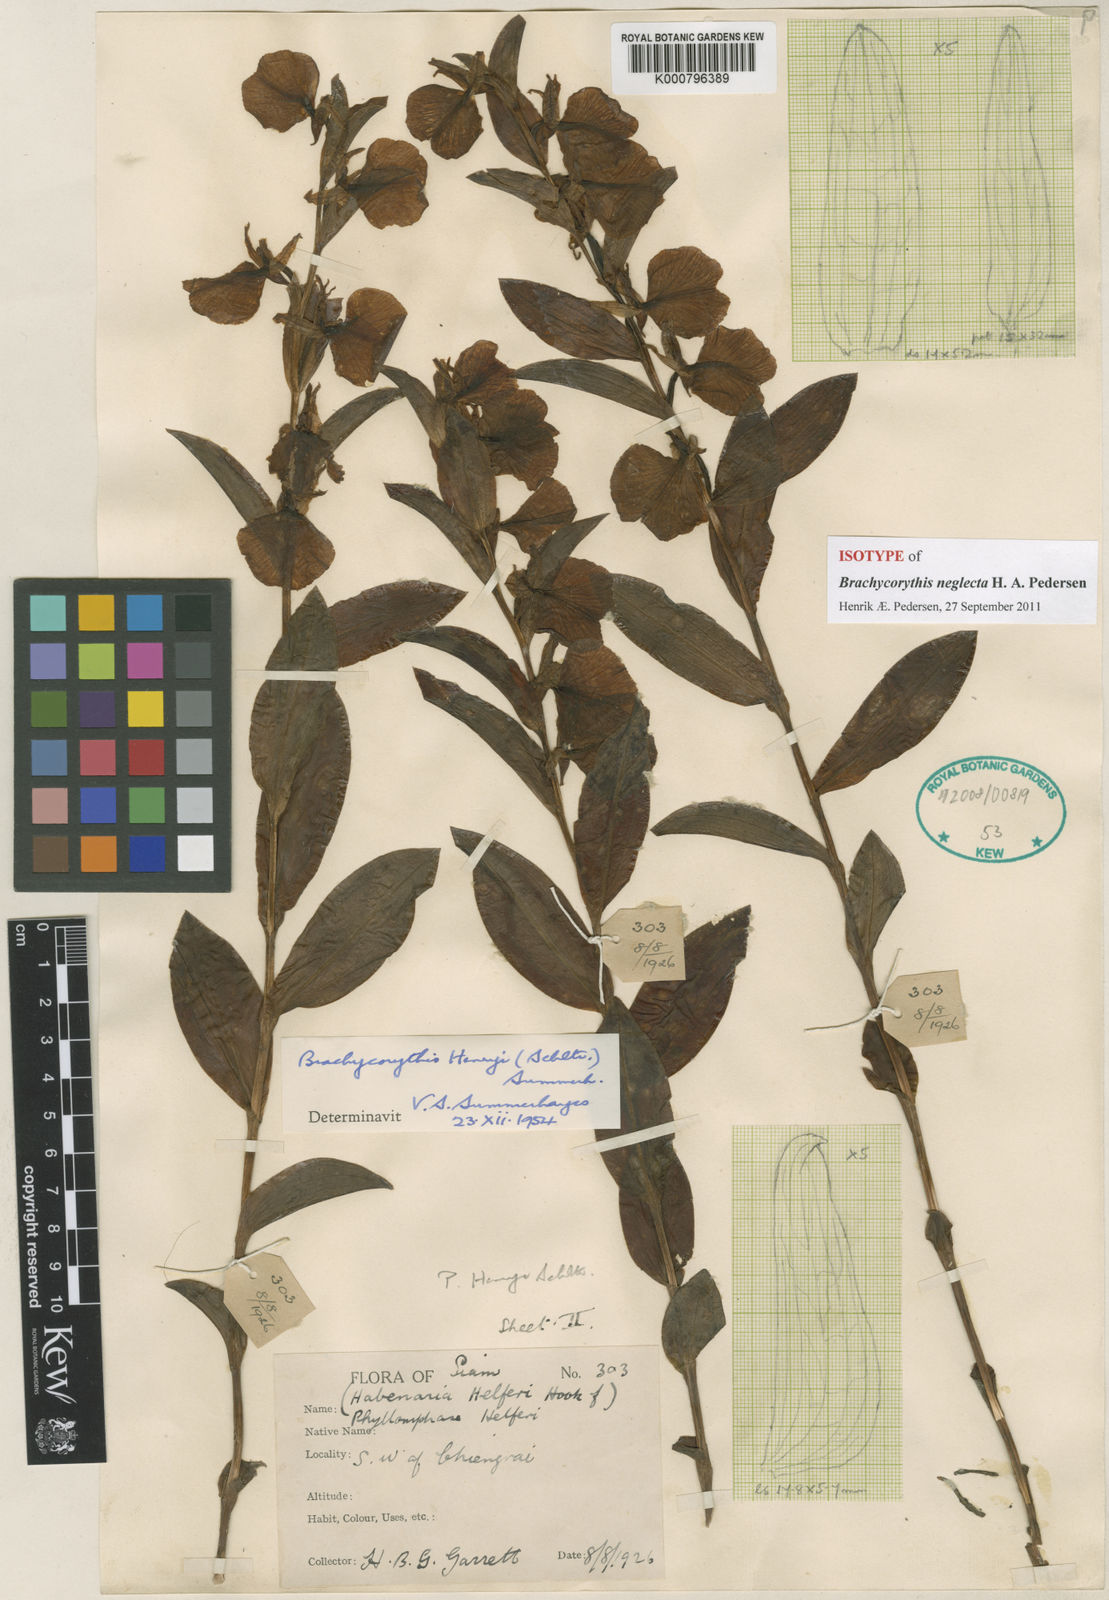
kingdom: Plantae
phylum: Tracheophyta
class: Liliopsida
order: Asparagales
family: Orchidaceae
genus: Brachycorythis
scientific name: Brachycorythis neglecta
